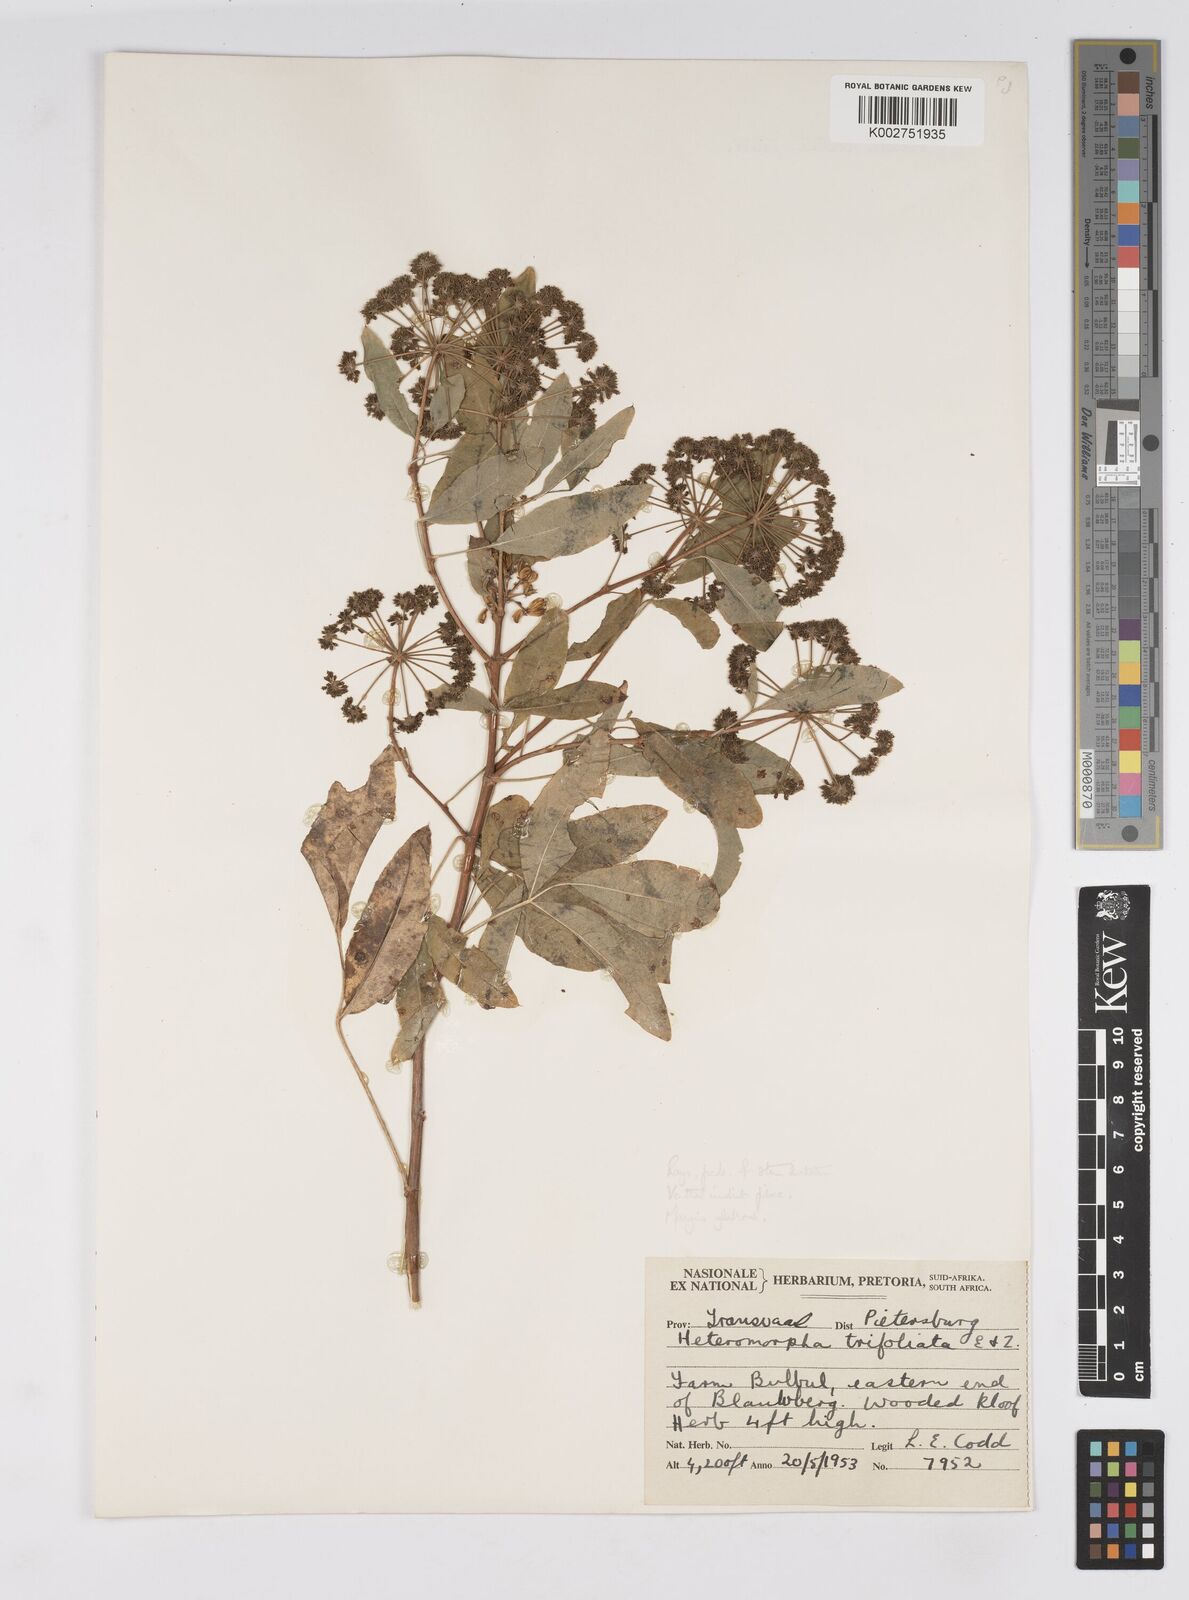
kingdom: Plantae
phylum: Tracheophyta
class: Magnoliopsida
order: Apiales
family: Apiaceae
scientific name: Apiaceae
